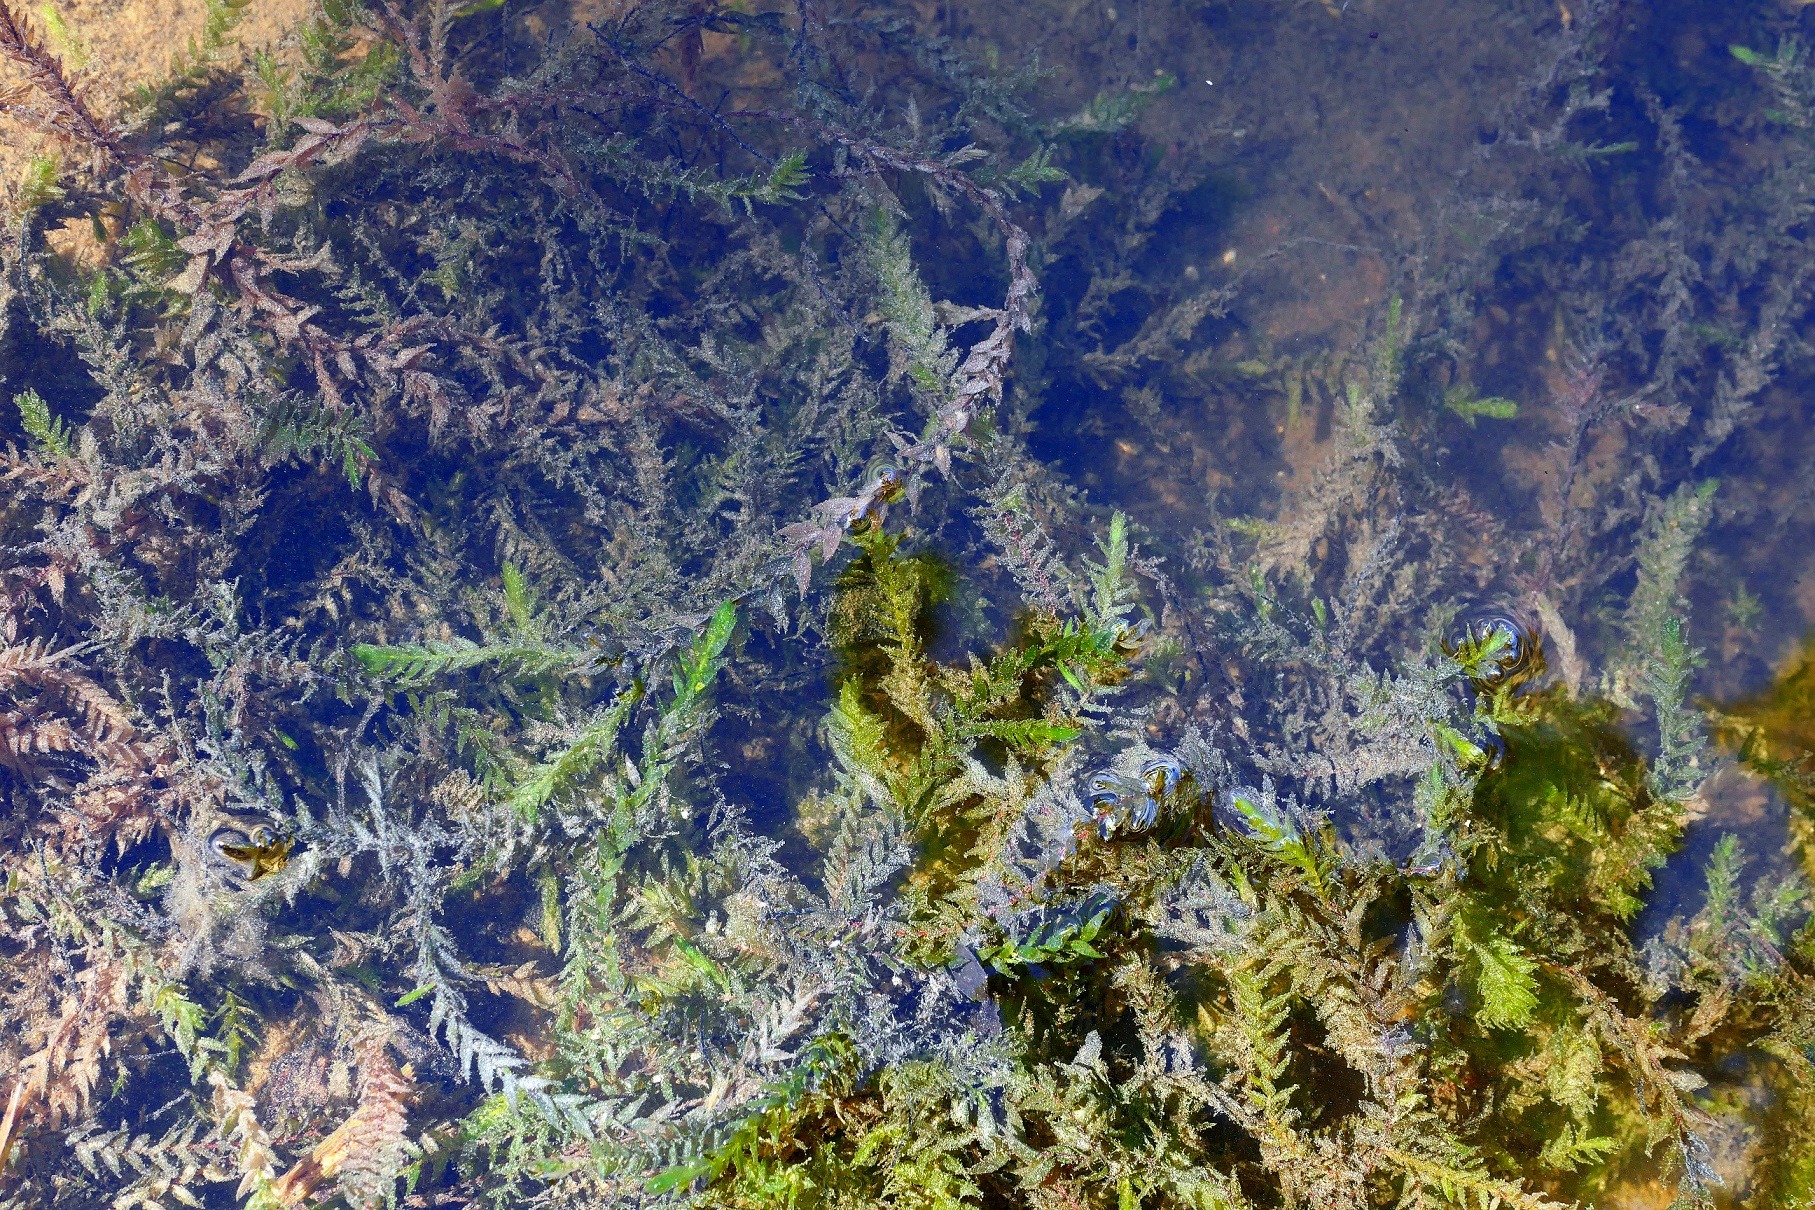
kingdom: Plantae
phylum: Bryophyta
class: Bryopsida
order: Hypnales
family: Fontinalaceae
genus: Fontinalis
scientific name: Fontinalis antipyretica
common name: Stor kildemos
